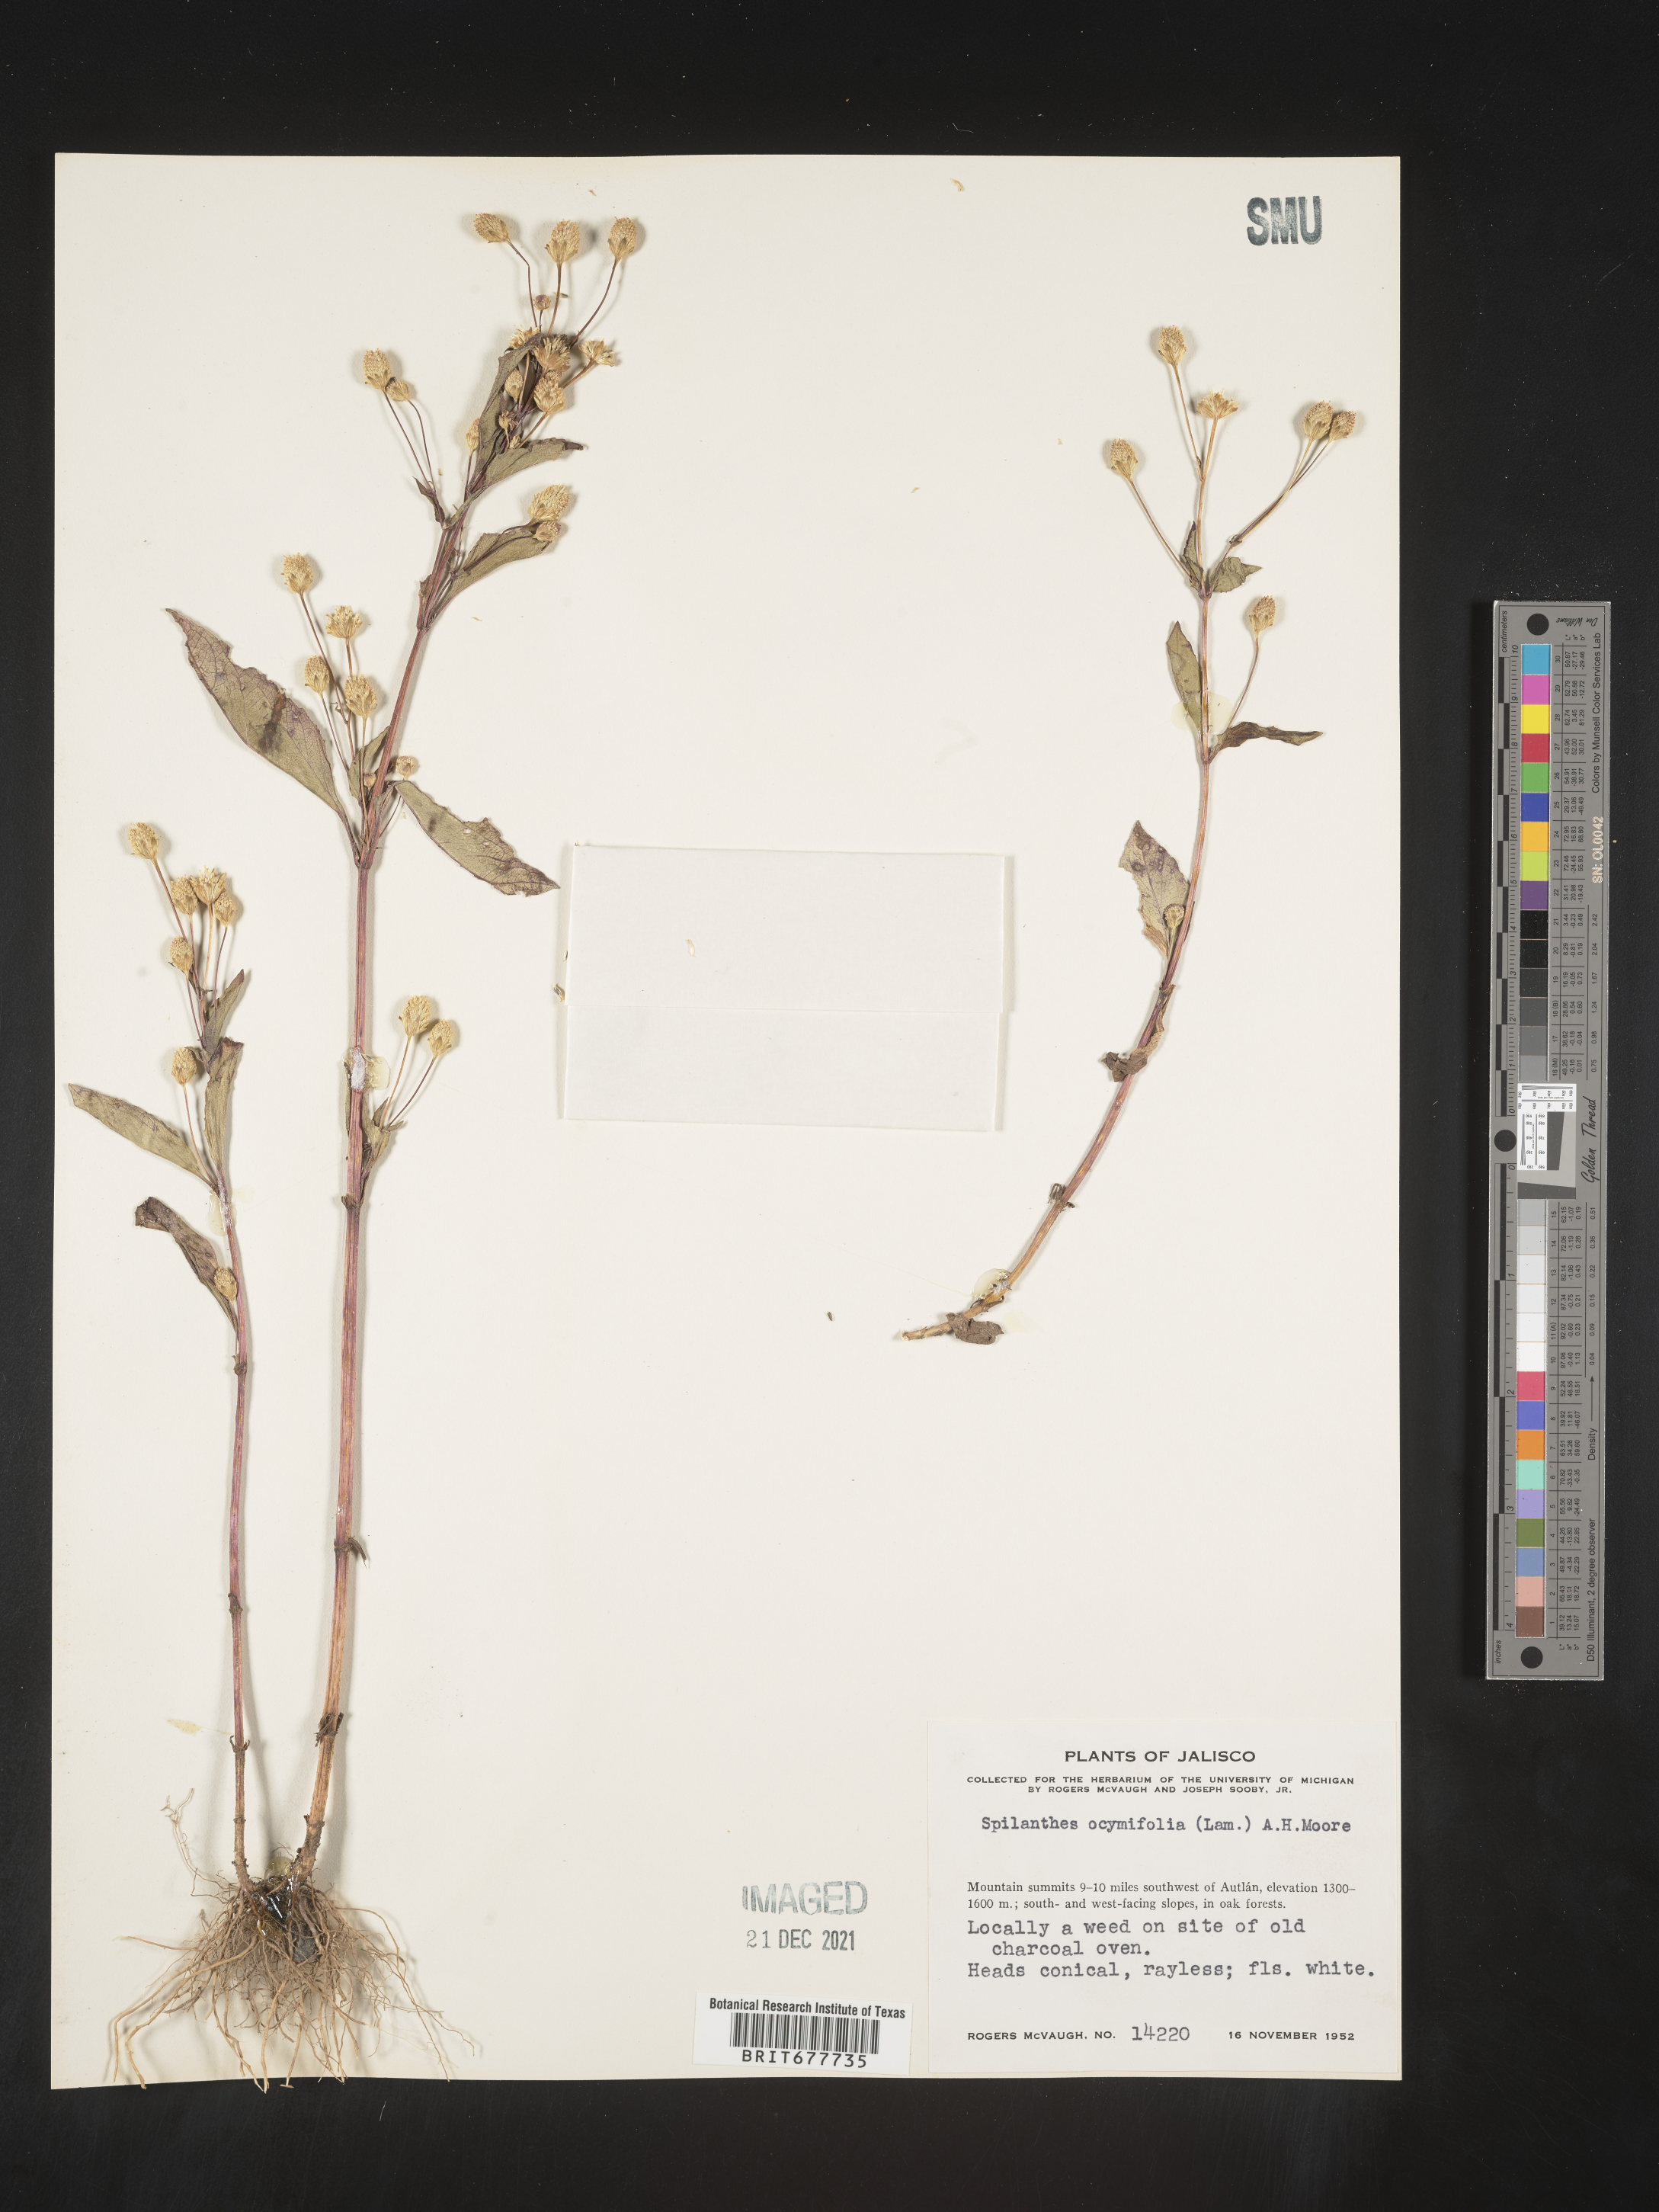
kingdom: Plantae
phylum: Tracheophyta
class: Magnoliopsida
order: Asterales
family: Asteraceae
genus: Spilanthes
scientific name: Spilanthes
